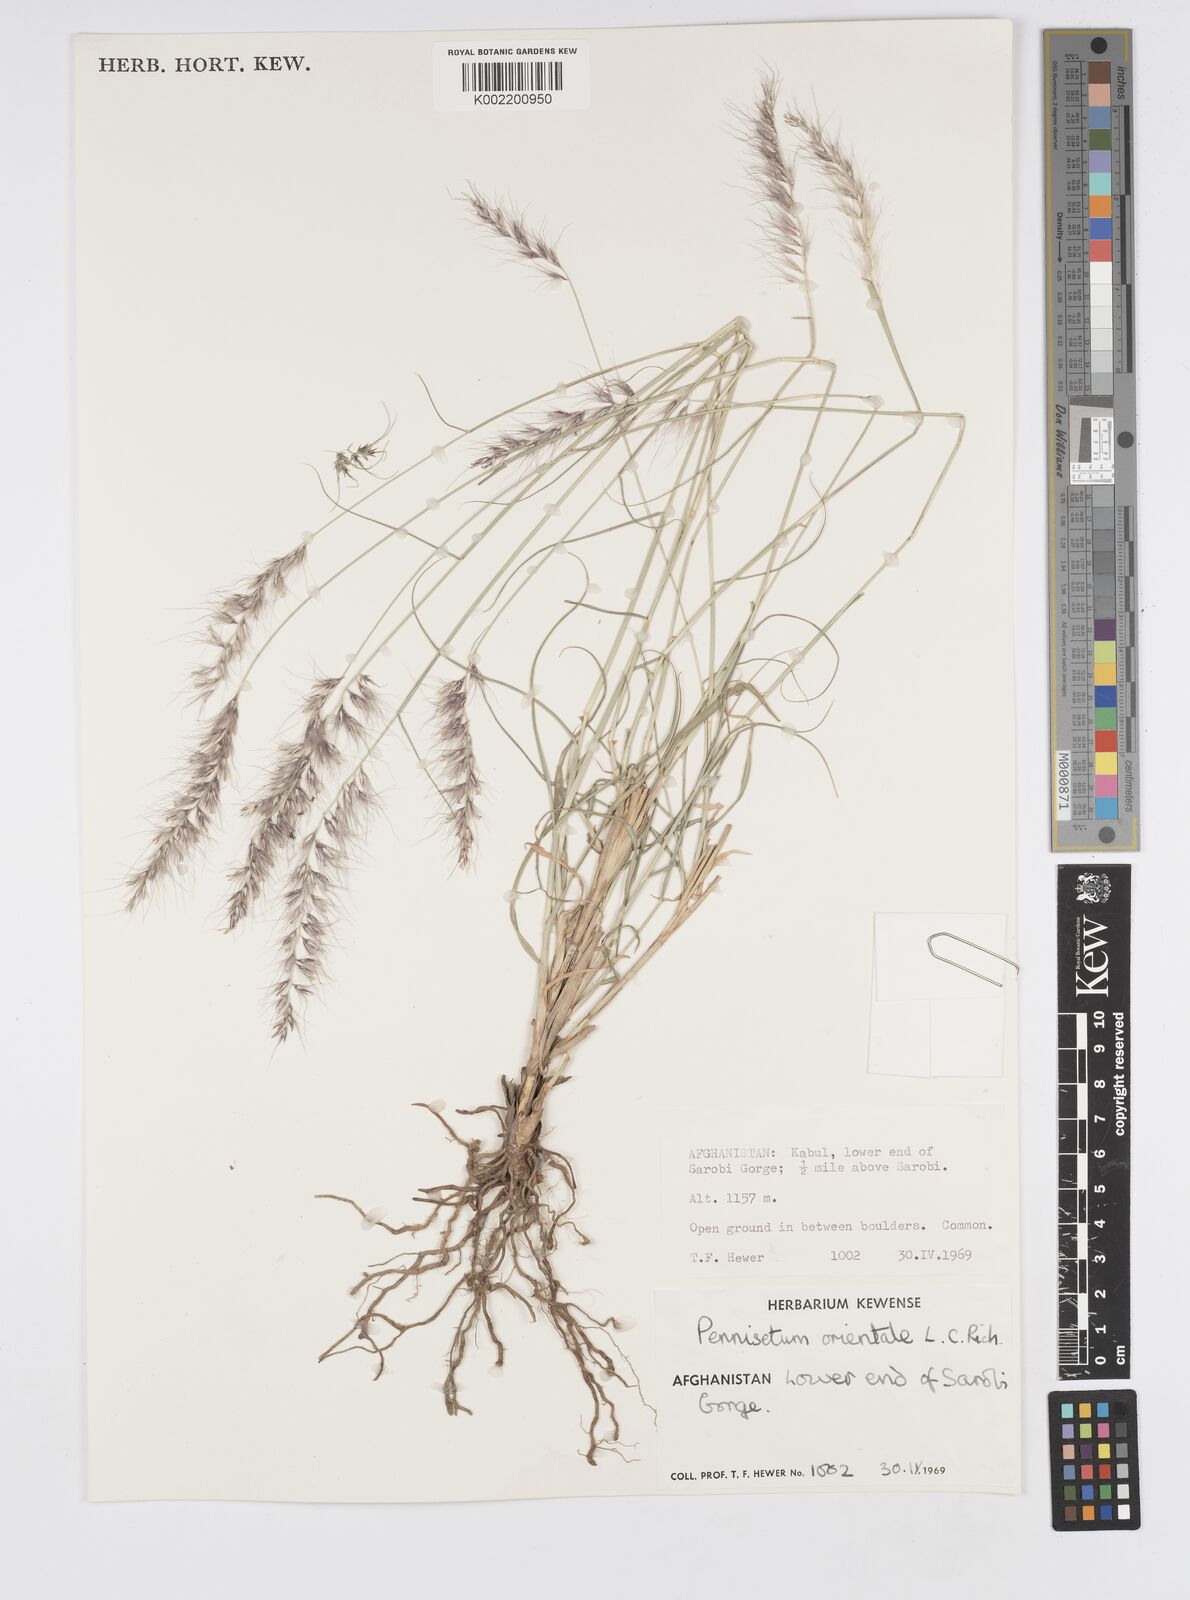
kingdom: Plantae
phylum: Tracheophyta
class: Liliopsida
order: Poales
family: Poaceae
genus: Cenchrus
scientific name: Cenchrus orientalis
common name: Oriental fountain grass
